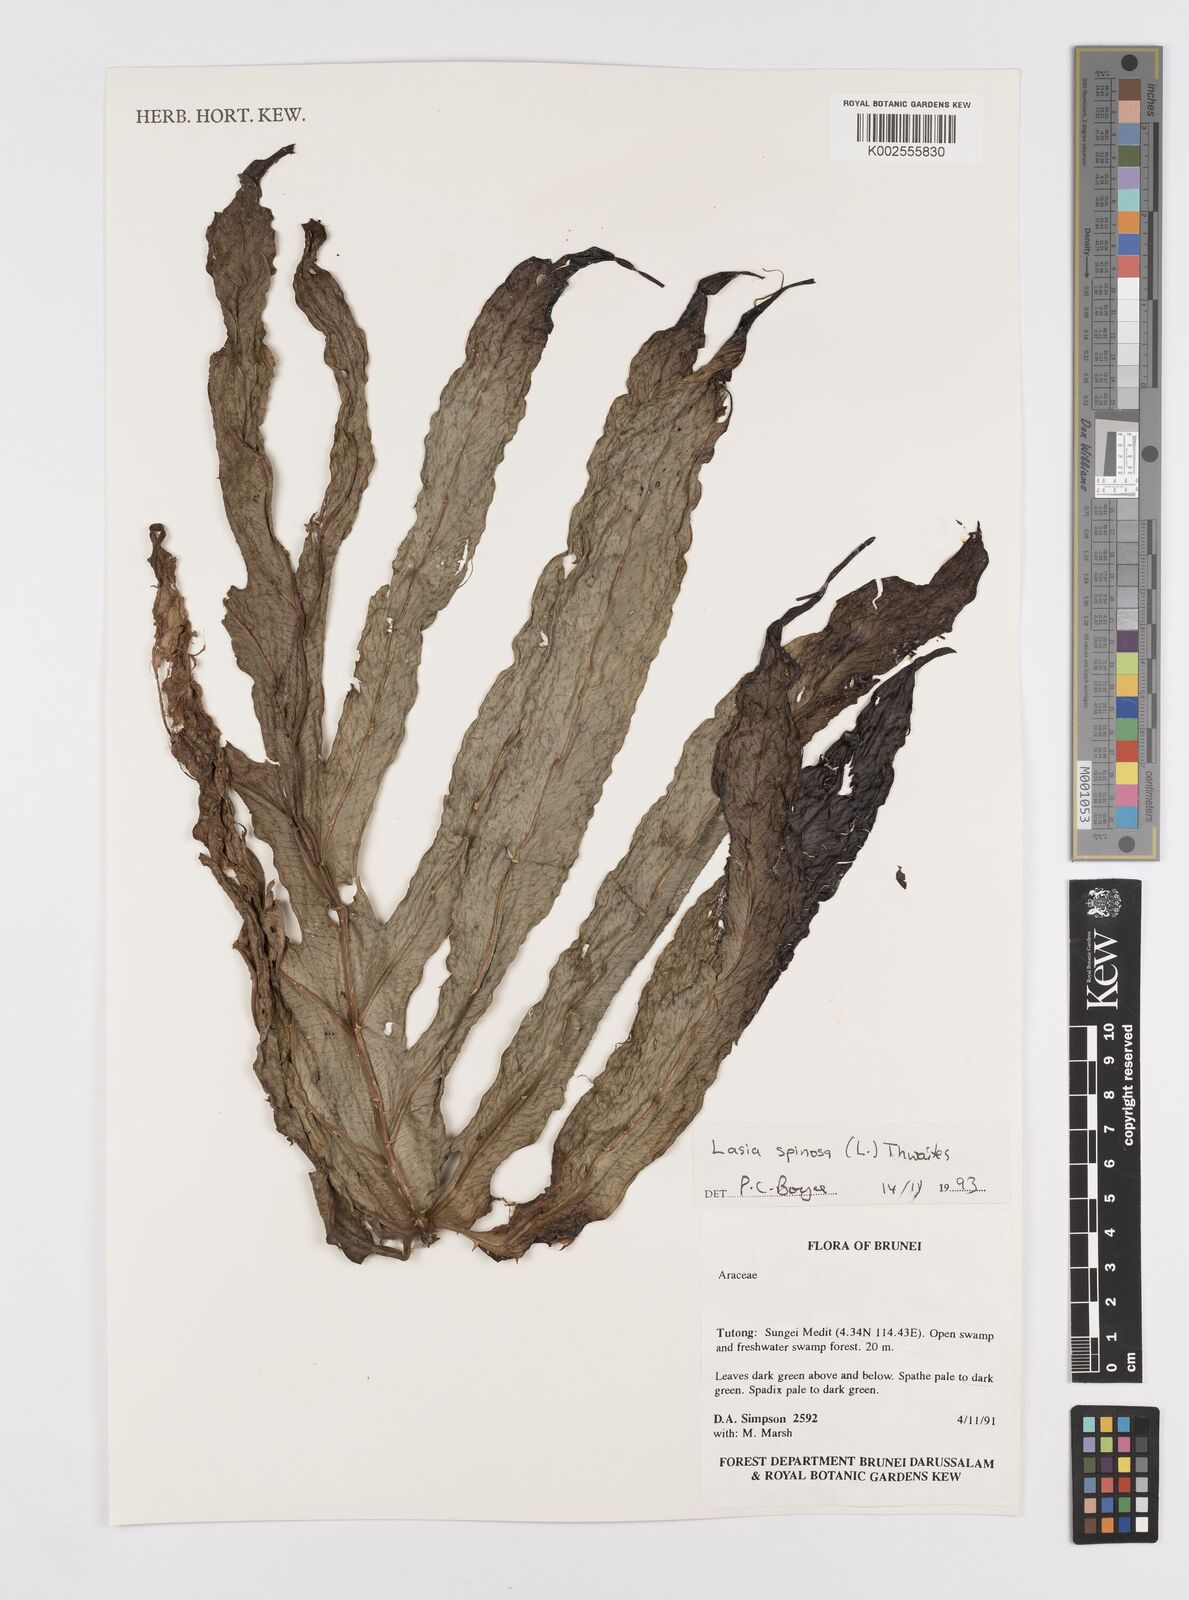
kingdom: Plantae
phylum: Tracheophyta
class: Liliopsida
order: Alismatales
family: Araceae
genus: Lasia
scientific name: Lasia spinosa
